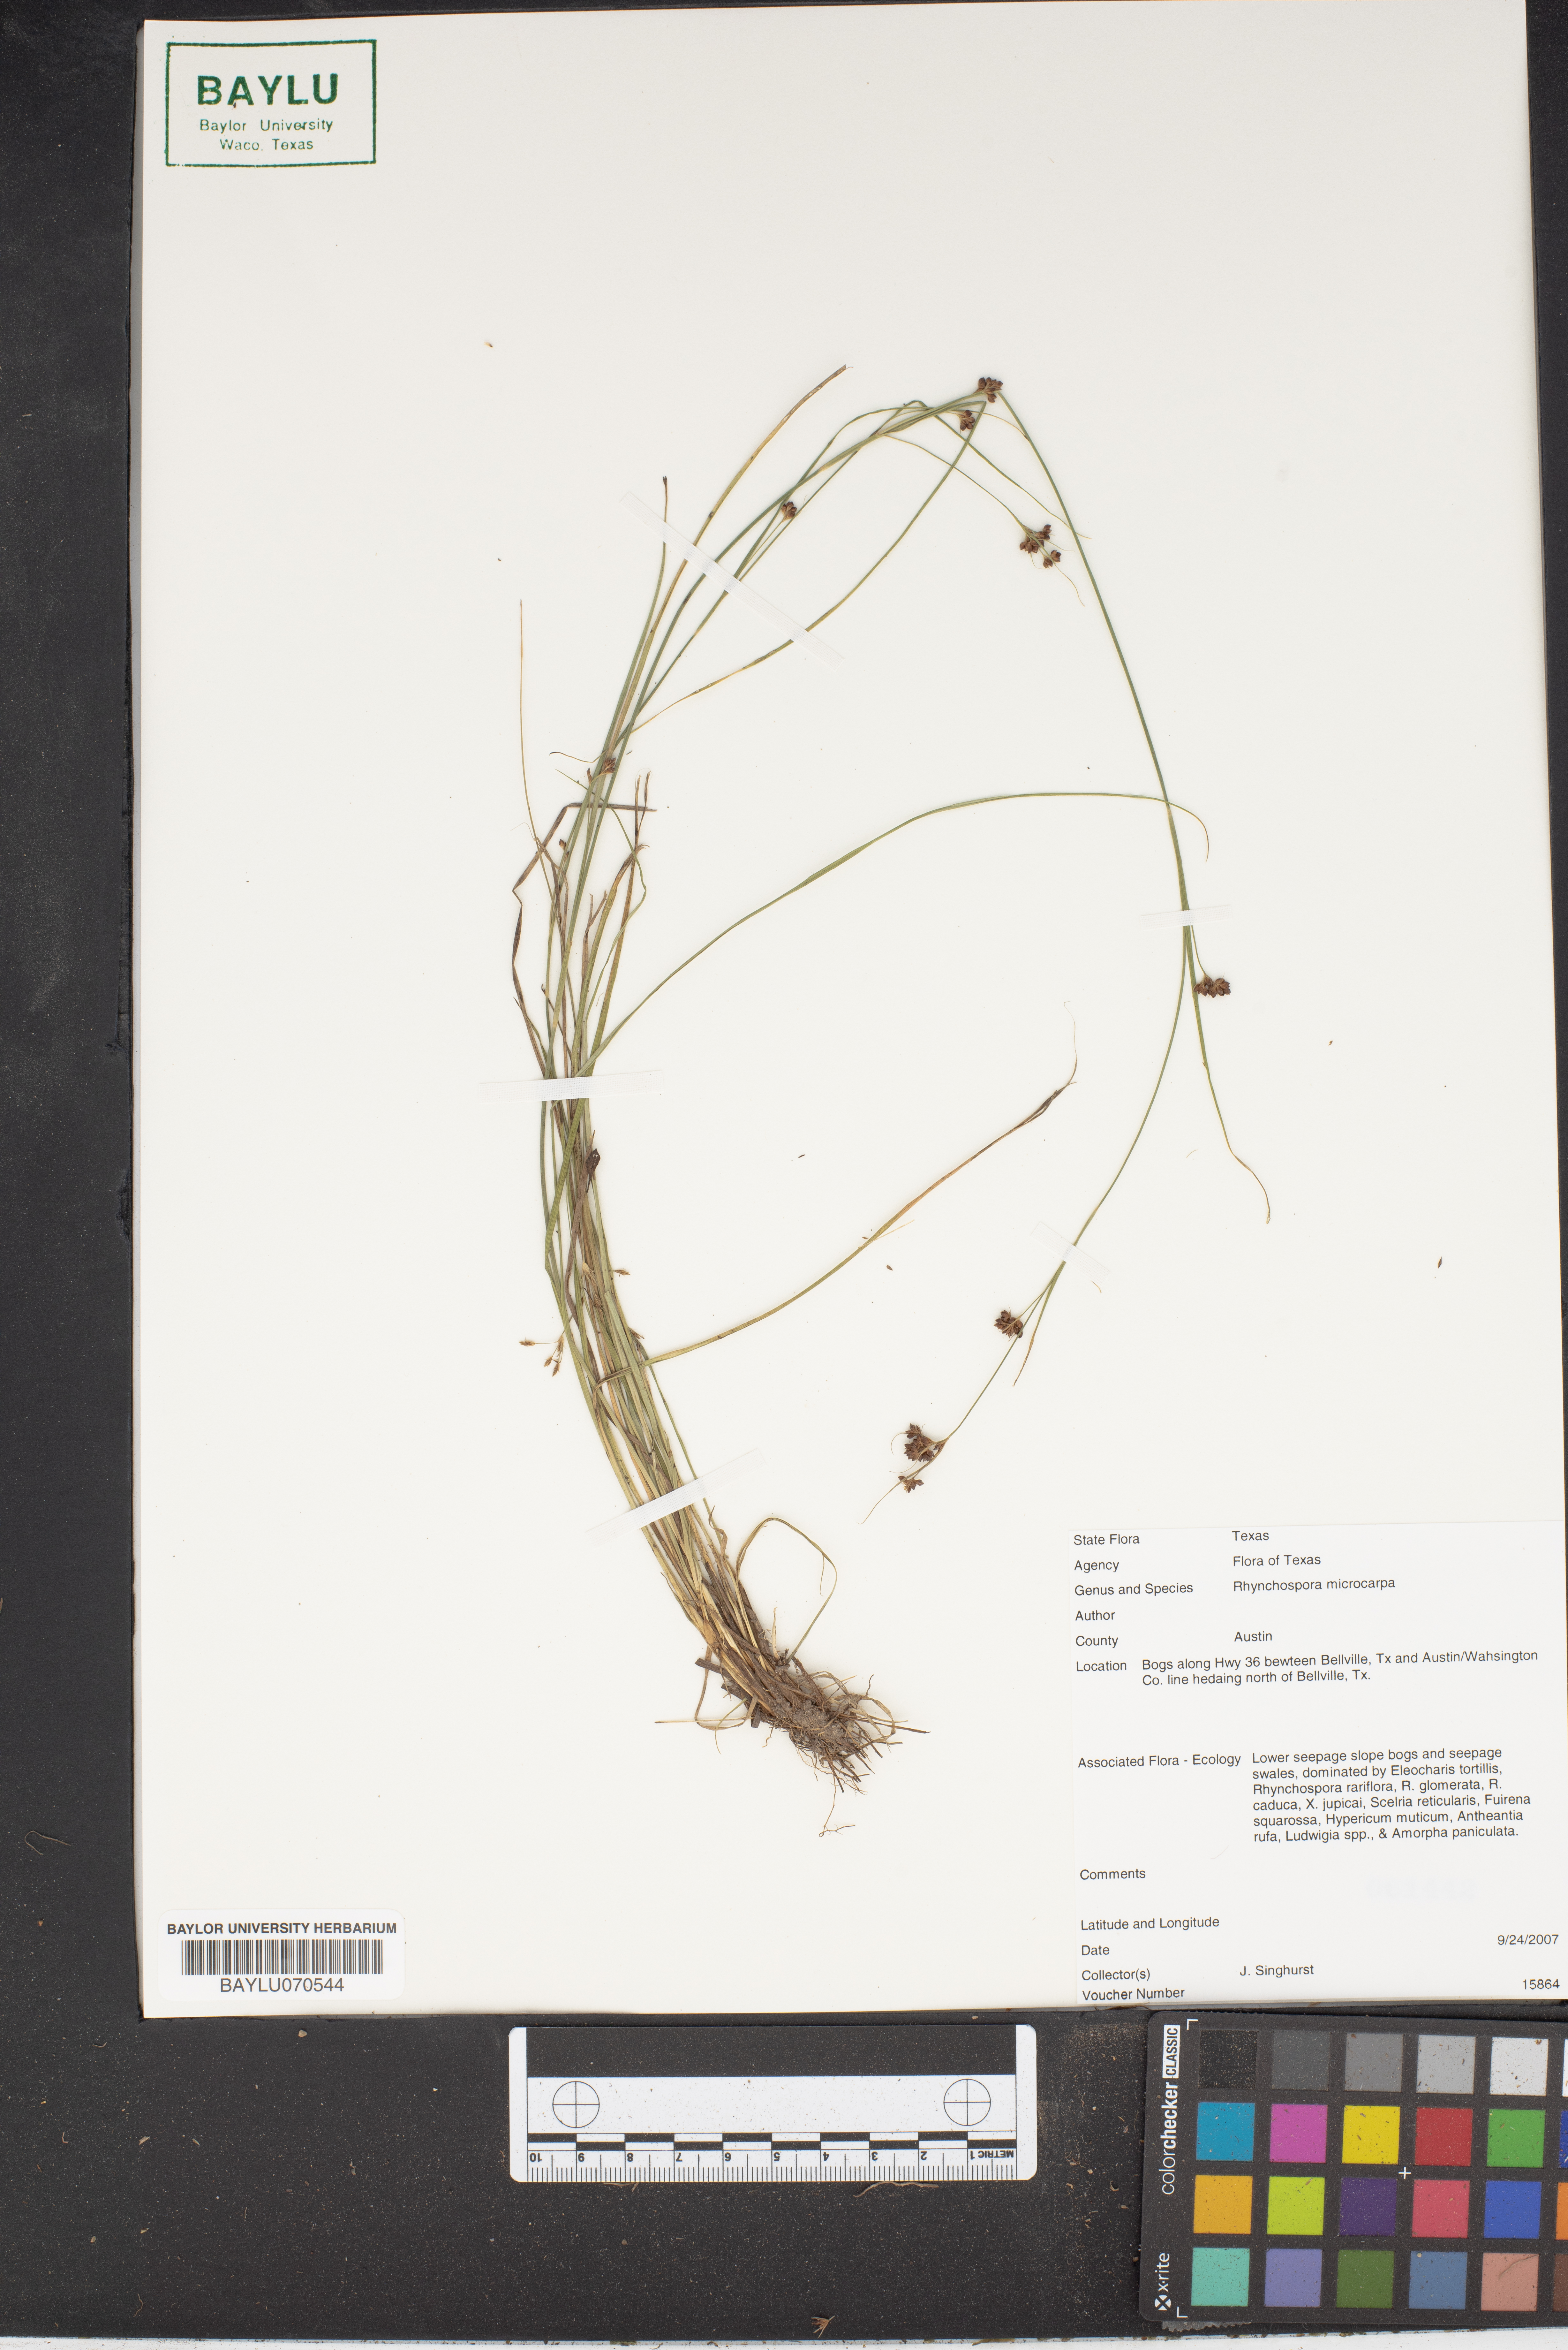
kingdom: Plantae
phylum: Tracheophyta
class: Liliopsida
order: Poales
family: Cyperaceae
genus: Rhynchospora
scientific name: Rhynchospora microcarpa
